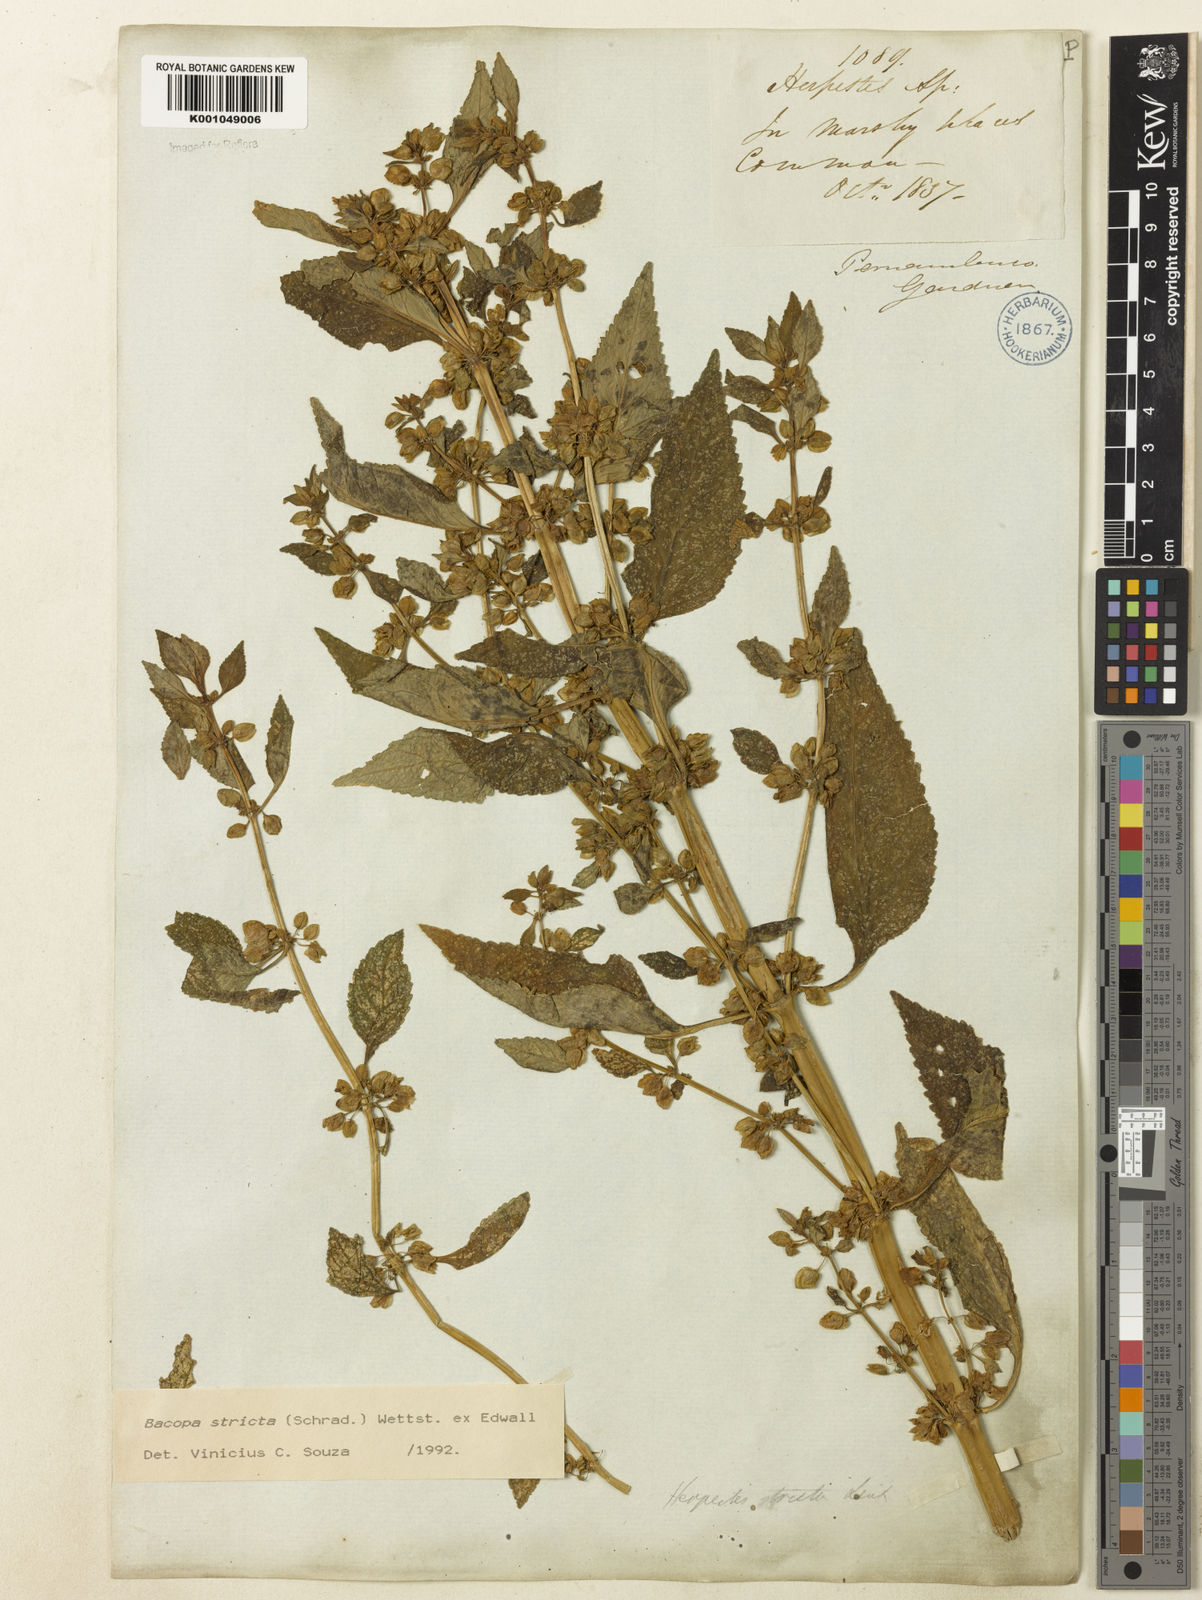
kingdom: Plantae
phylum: Tracheophyta
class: Magnoliopsida
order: Lamiales
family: Plantaginaceae
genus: Bacopa
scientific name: Bacopa stricta
